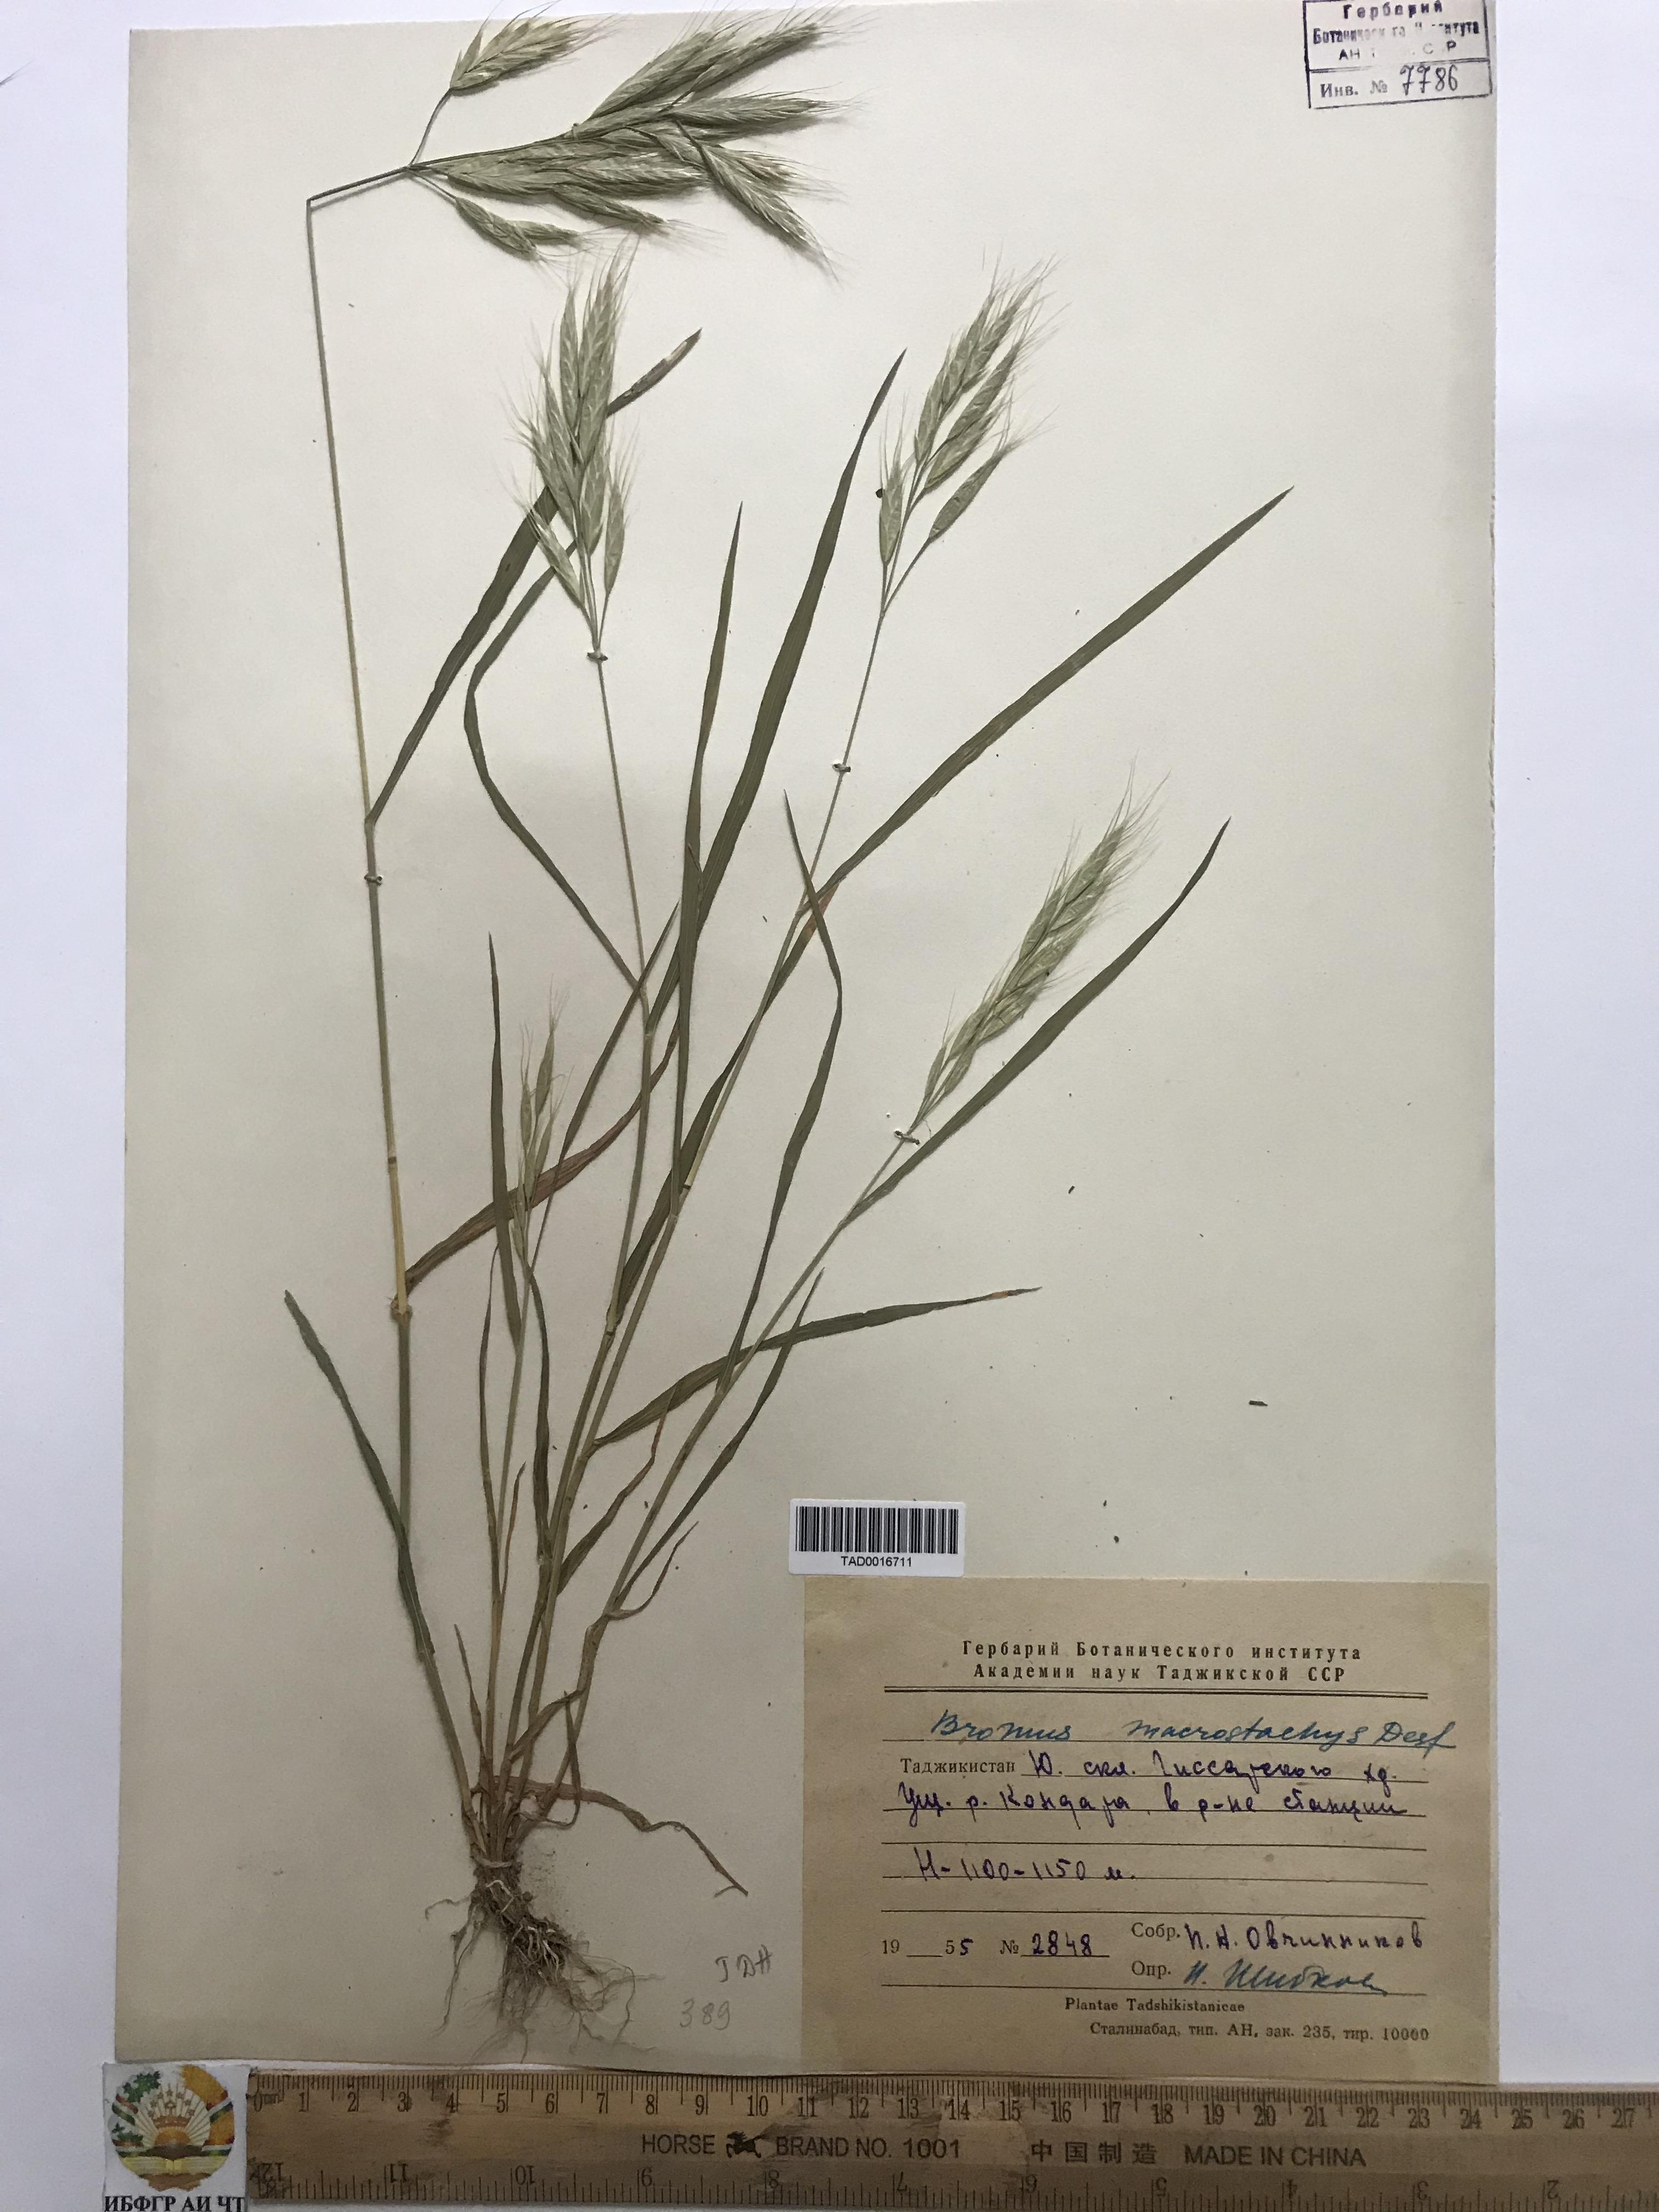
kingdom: Plantae
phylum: Tracheophyta
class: Liliopsida
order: Poales
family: Poaceae
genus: Bromus
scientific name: Bromus lanceolatus
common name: Mediterranean brome
